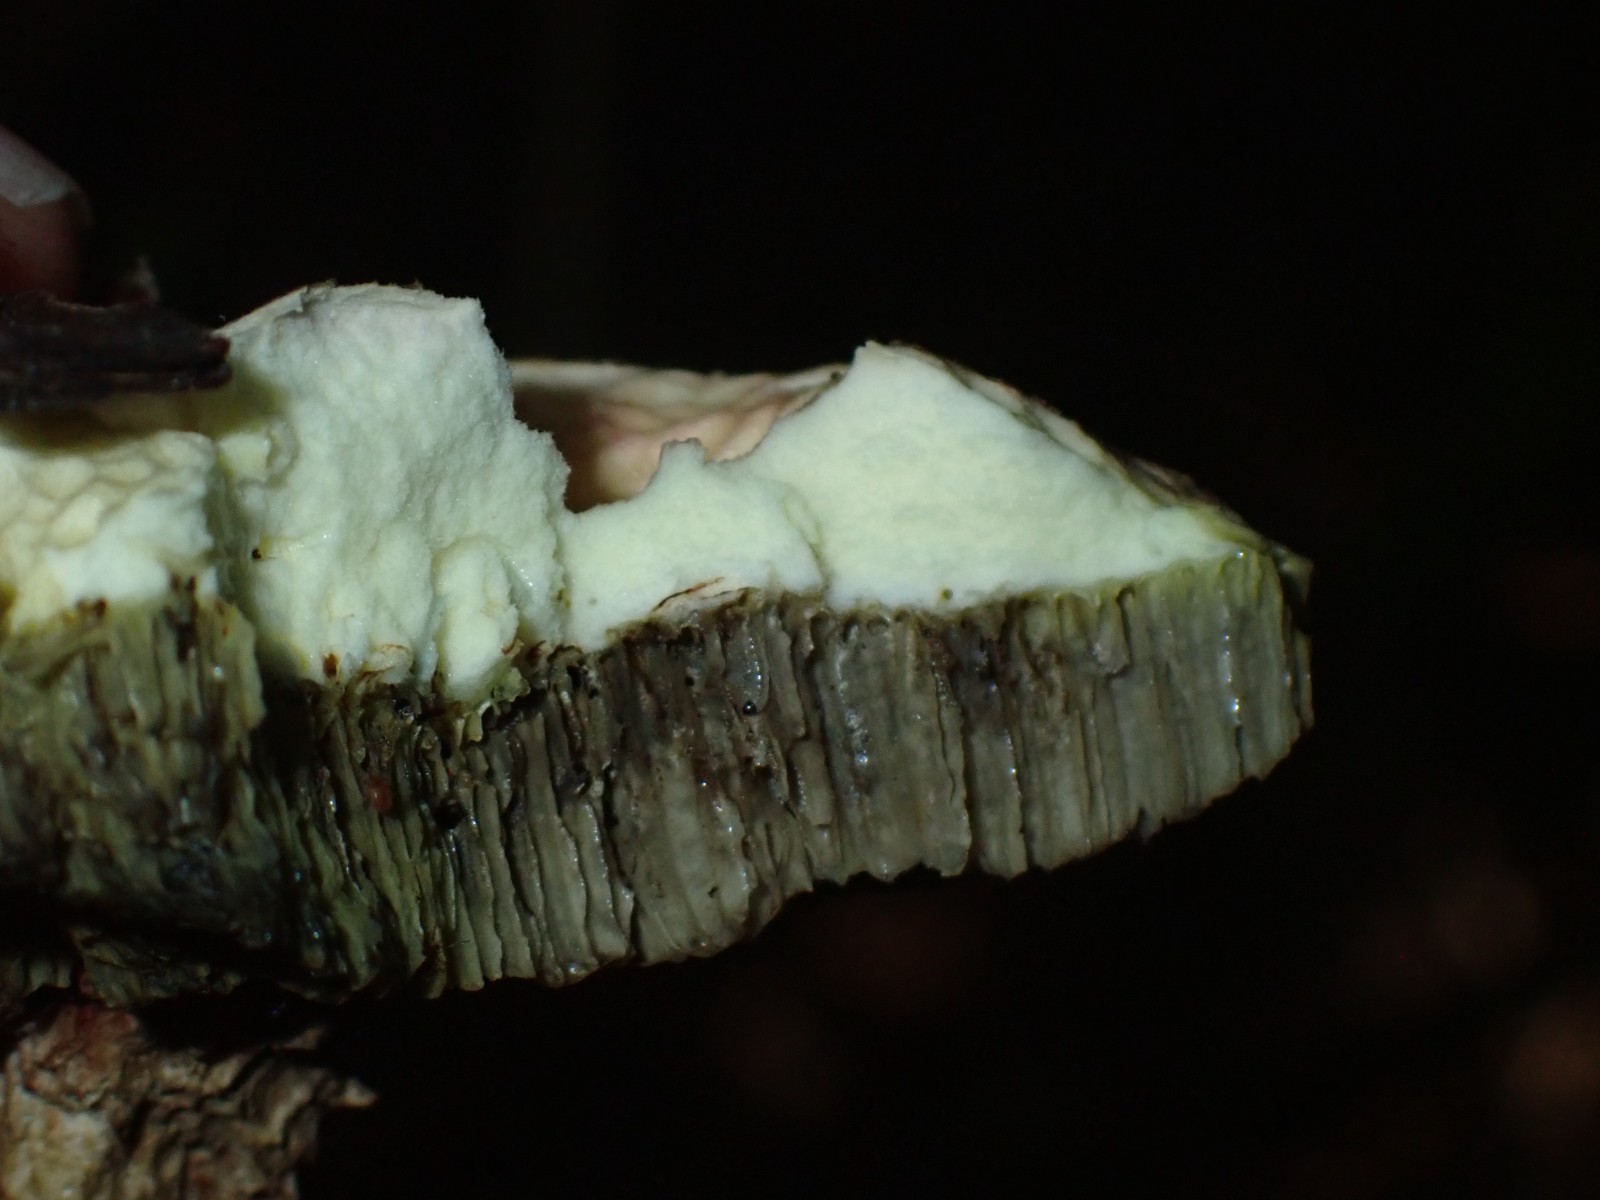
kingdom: Fungi
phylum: Basidiomycota
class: Agaricomycetes
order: Boletales
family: Boletaceae
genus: Xerocomellus
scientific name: Xerocomellus
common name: dværgrørhat
